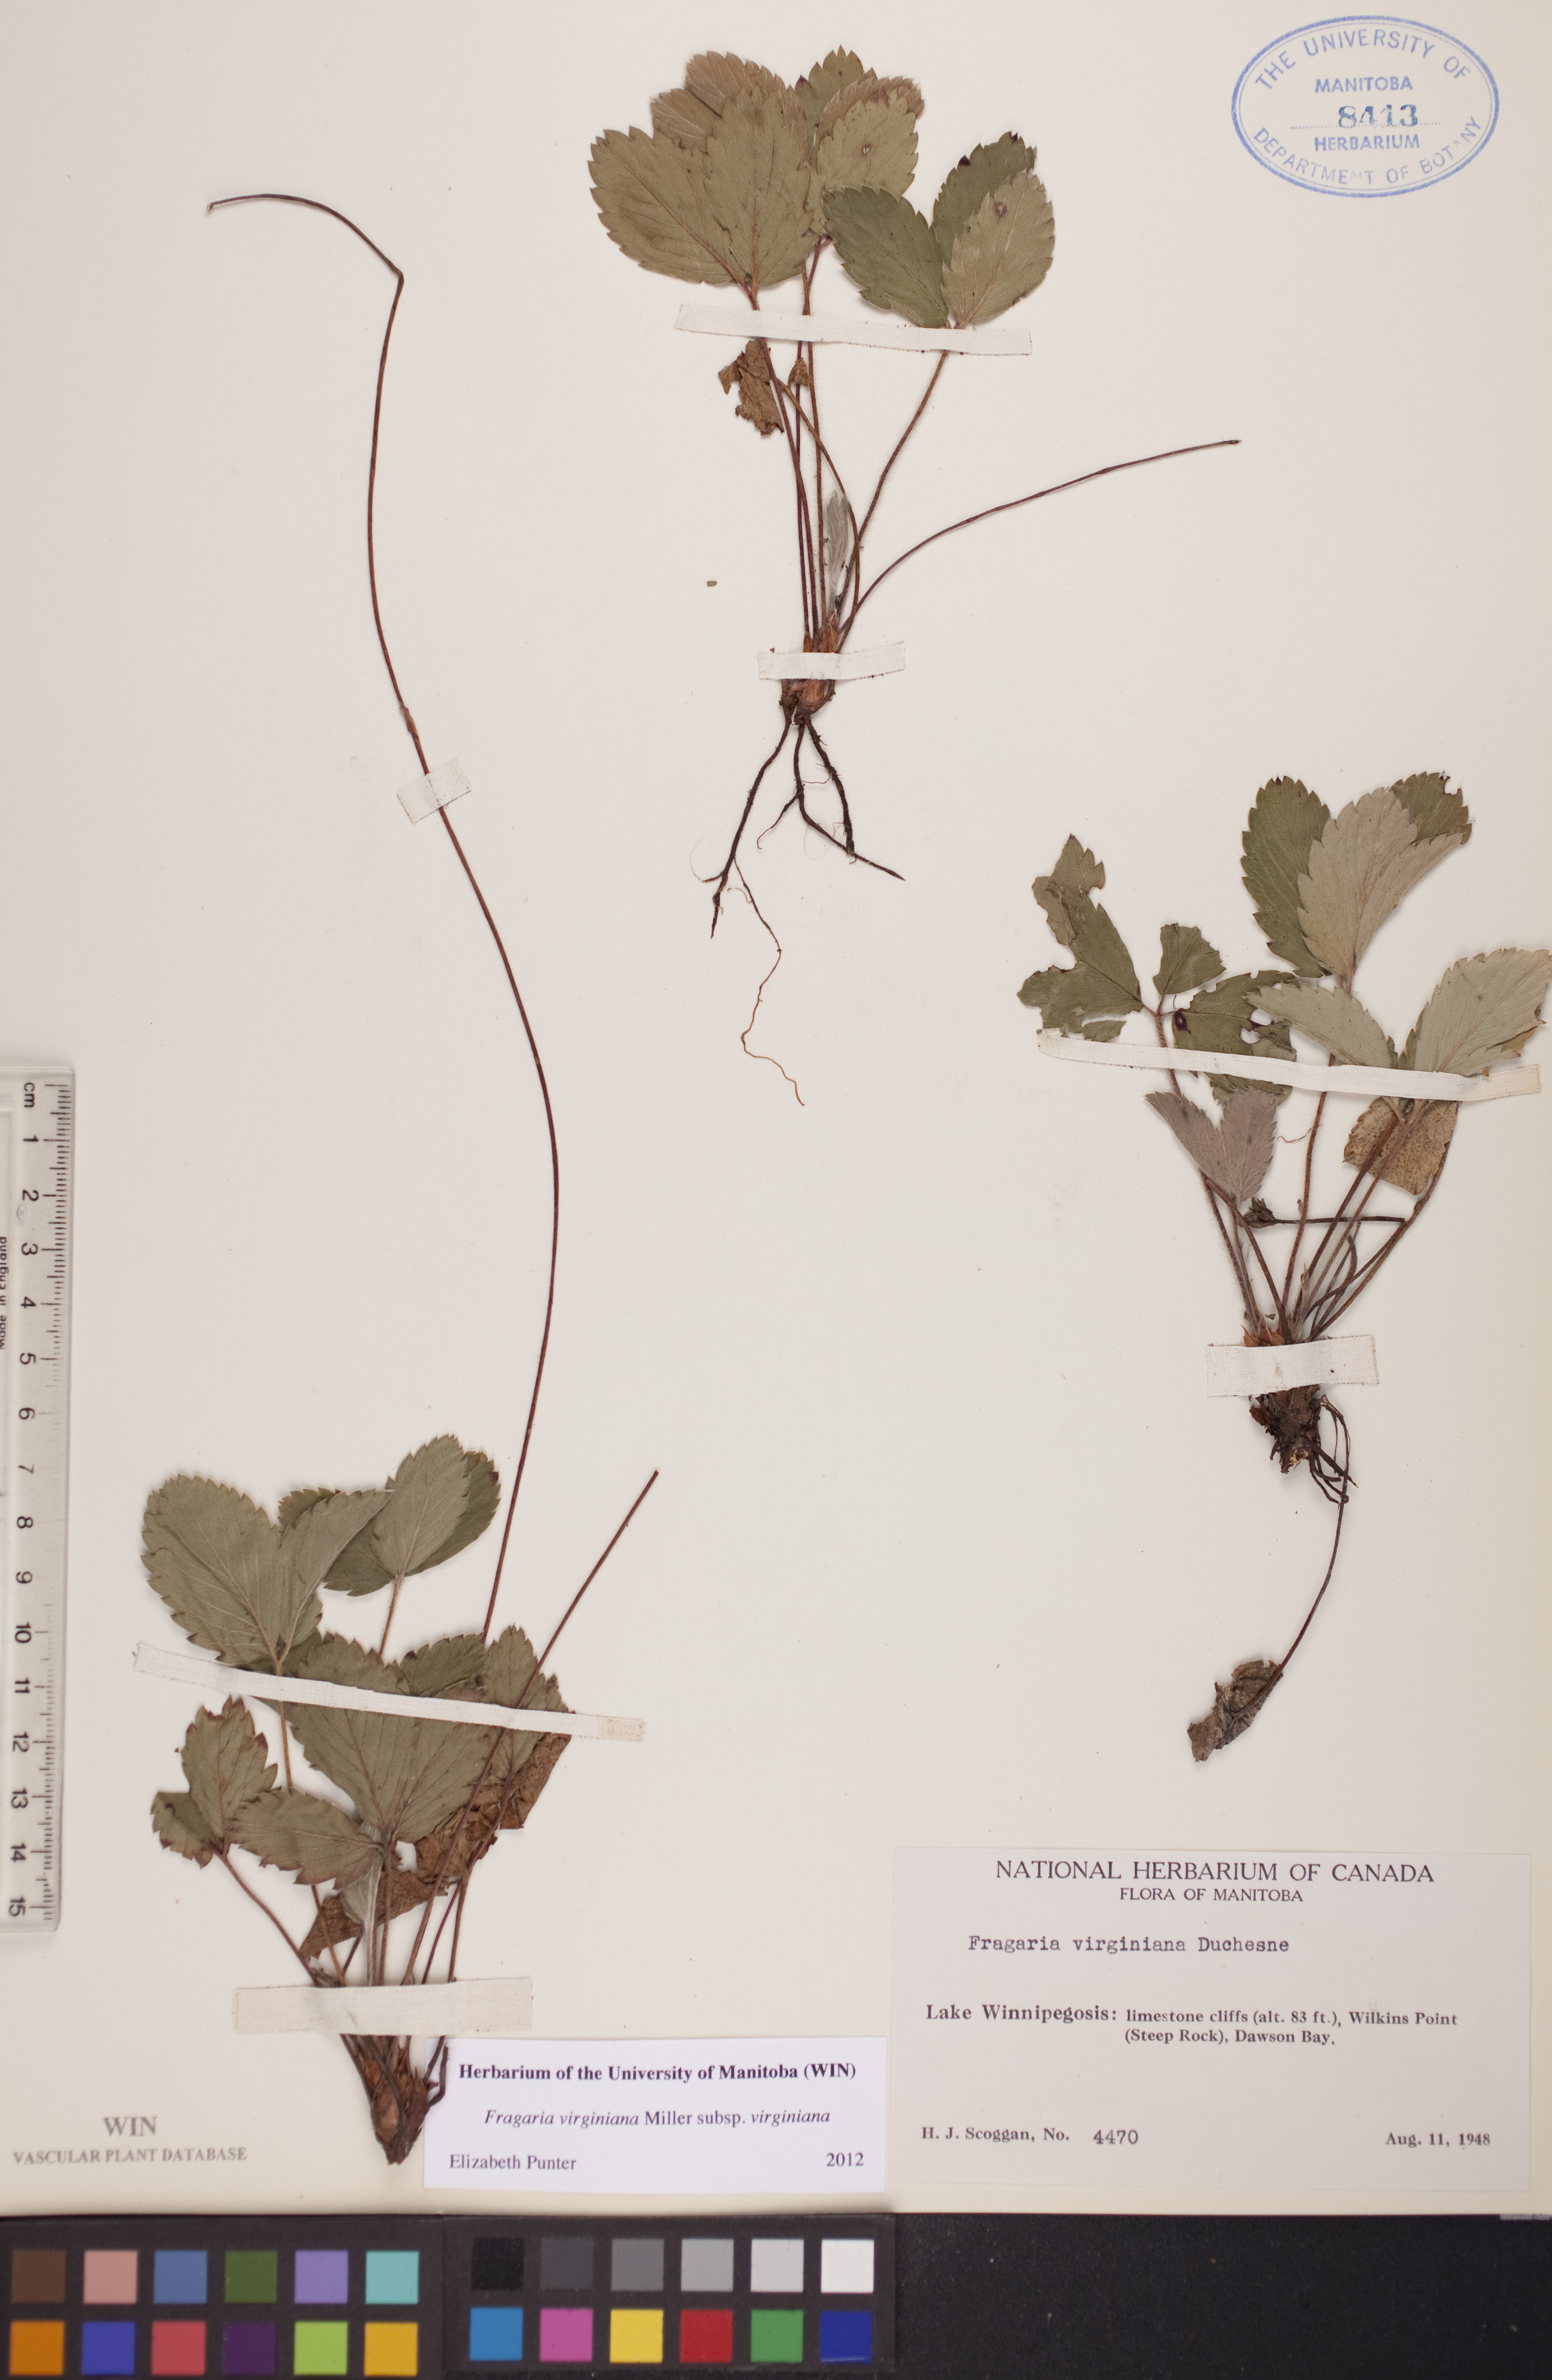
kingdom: Plantae
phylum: Tracheophyta
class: Magnoliopsida
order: Rosales
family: Rosaceae
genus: Fragaria
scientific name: Fragaria virginiana
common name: Thickleaved wild strawberry
